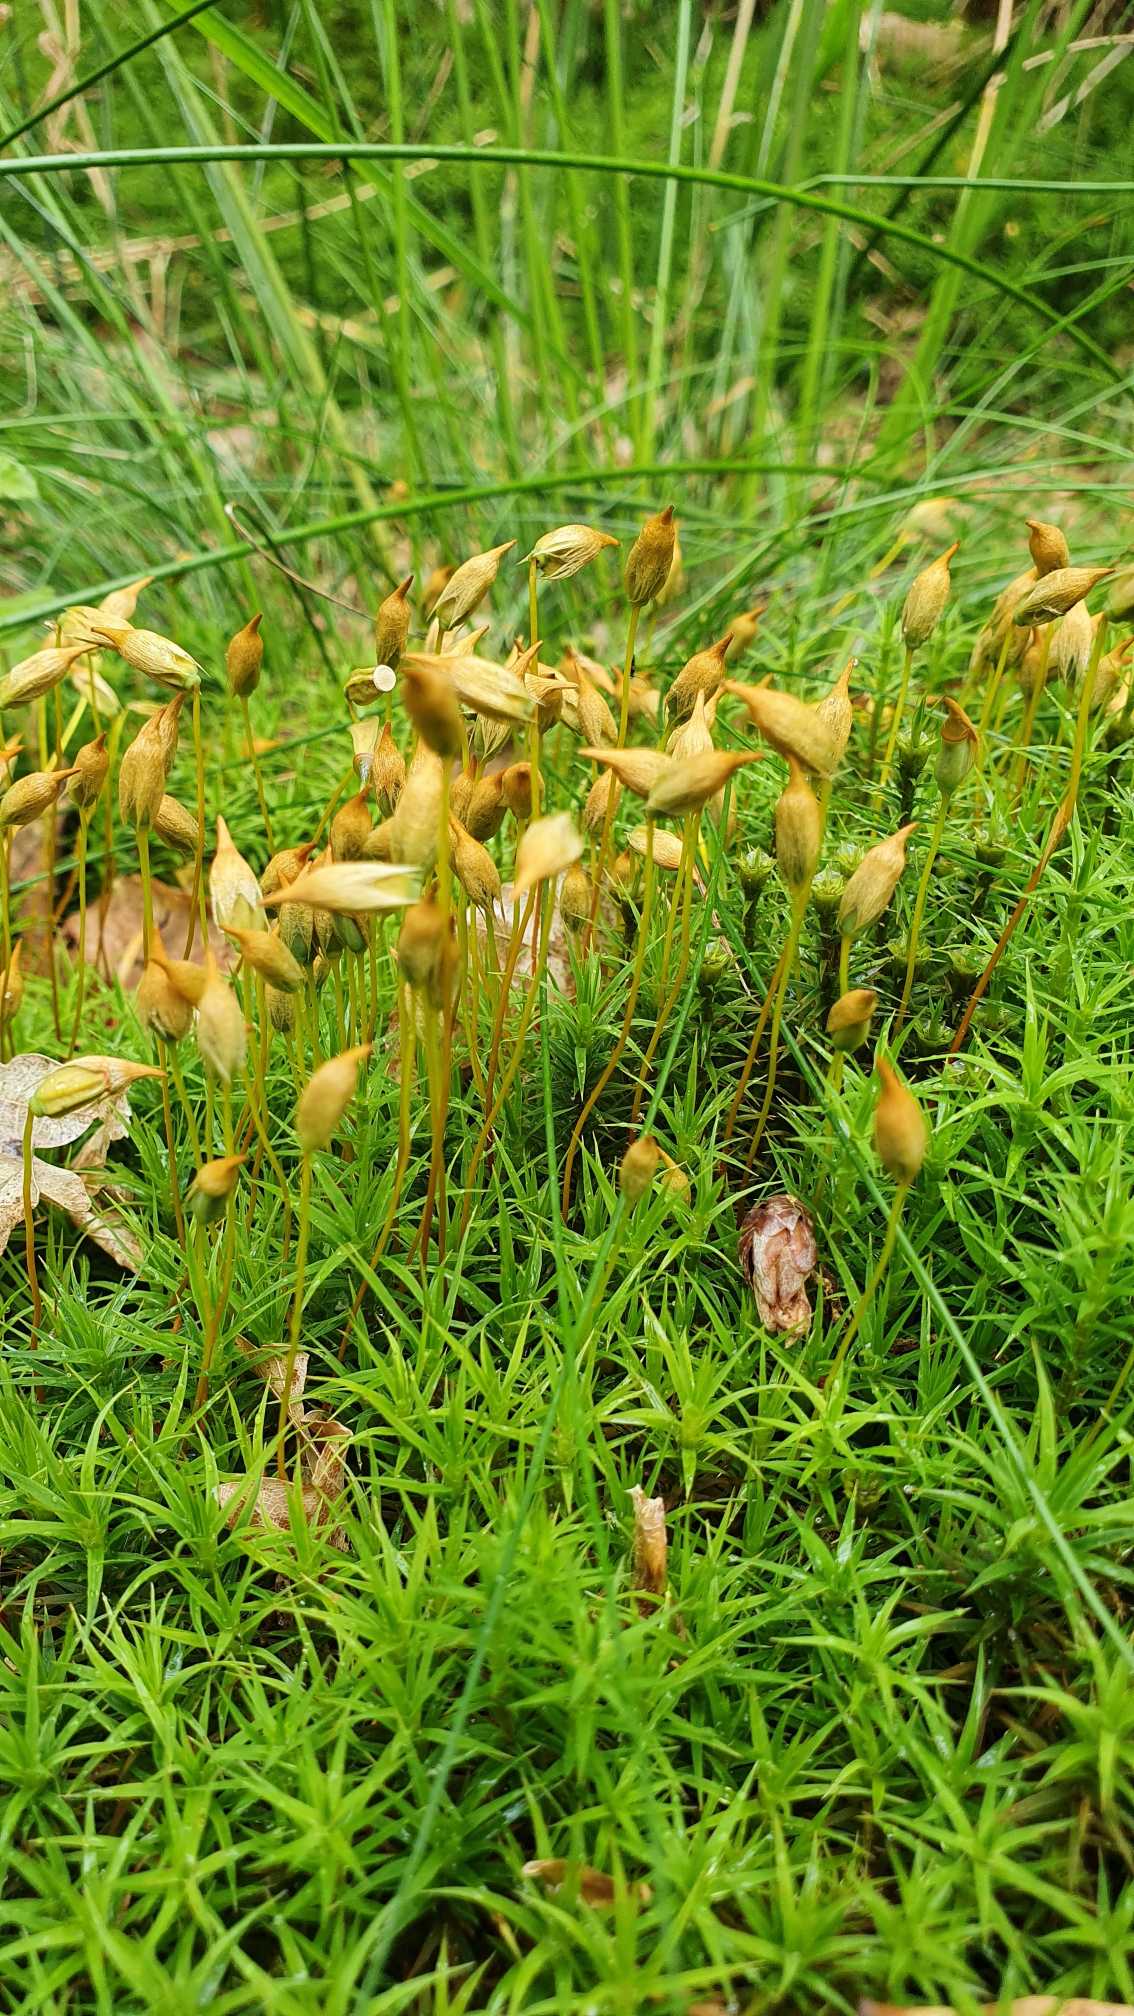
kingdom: Plantae
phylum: Bryophyta
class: Polytrichopsida
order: Polytrichales
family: Polytrichaceae
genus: Polytrichum
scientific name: Polytrichum formosum
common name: Skov-jomfruhår
